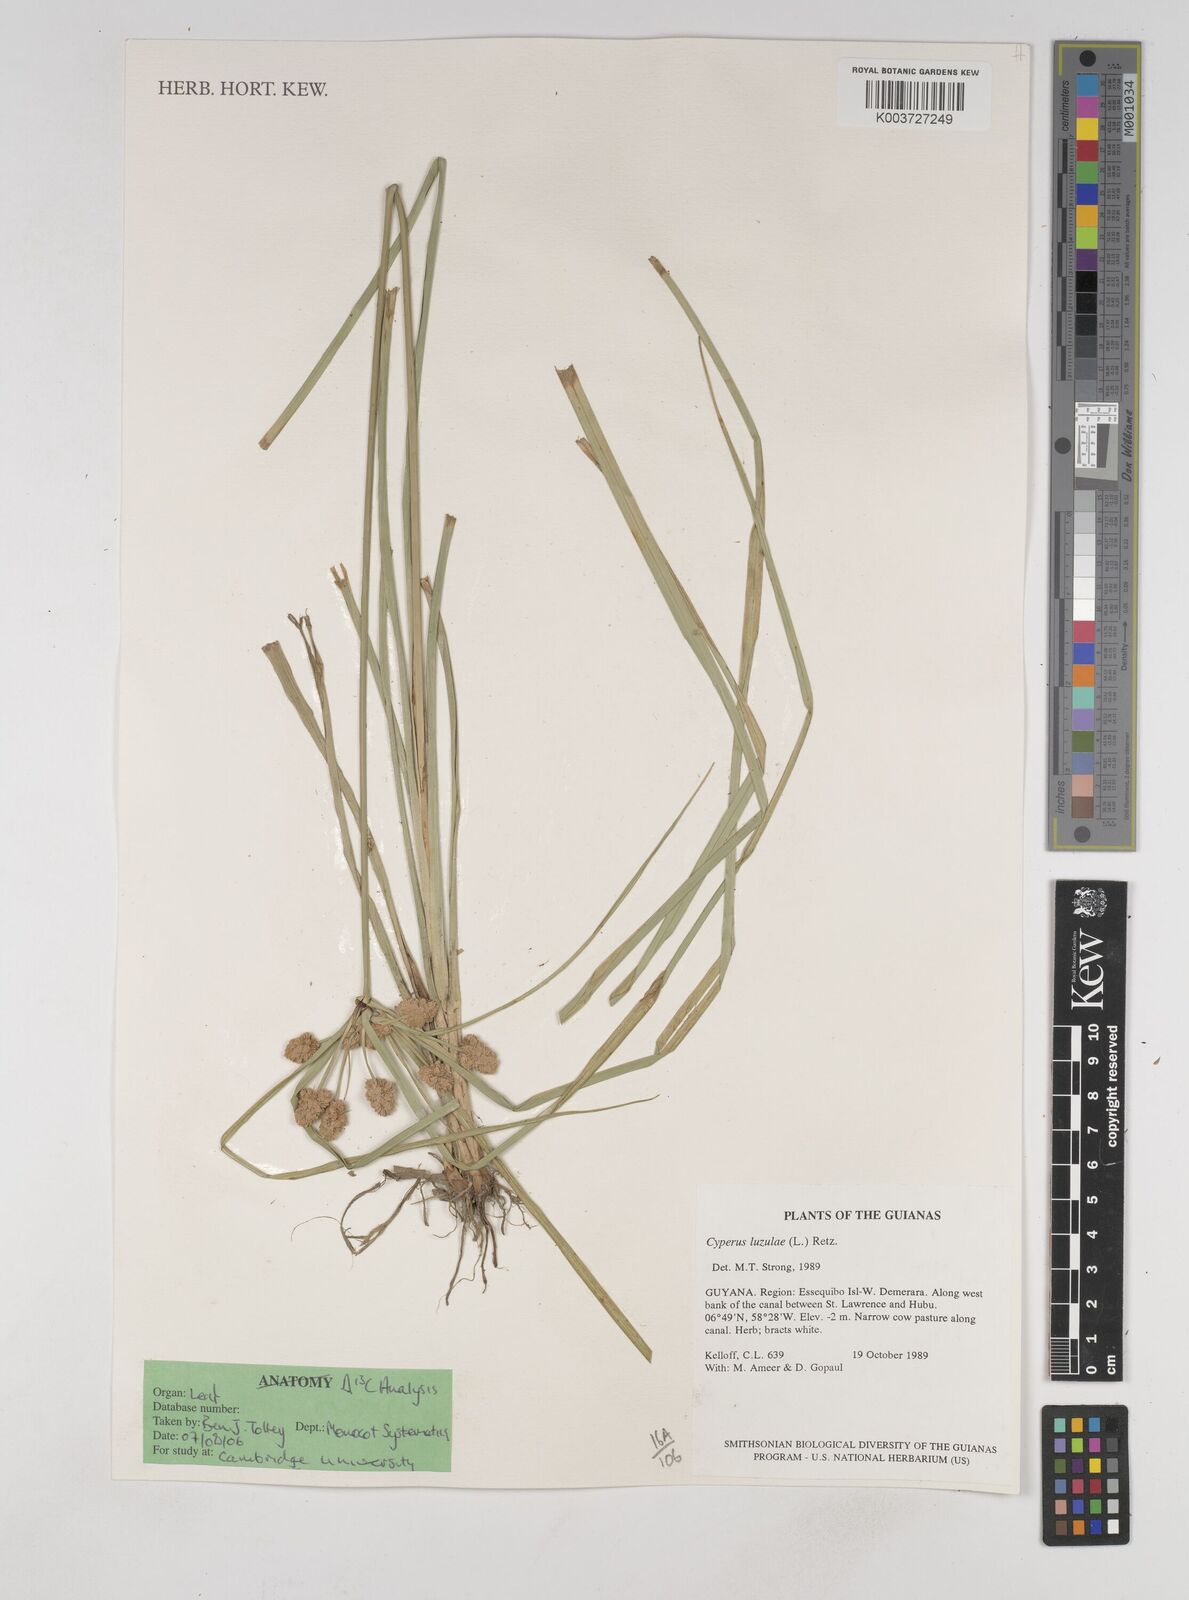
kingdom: Plantae
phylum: Tracheophyta
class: Liliopsida
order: Poales
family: Cyperaceae
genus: Cyperus
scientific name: Cyperus luzulae
